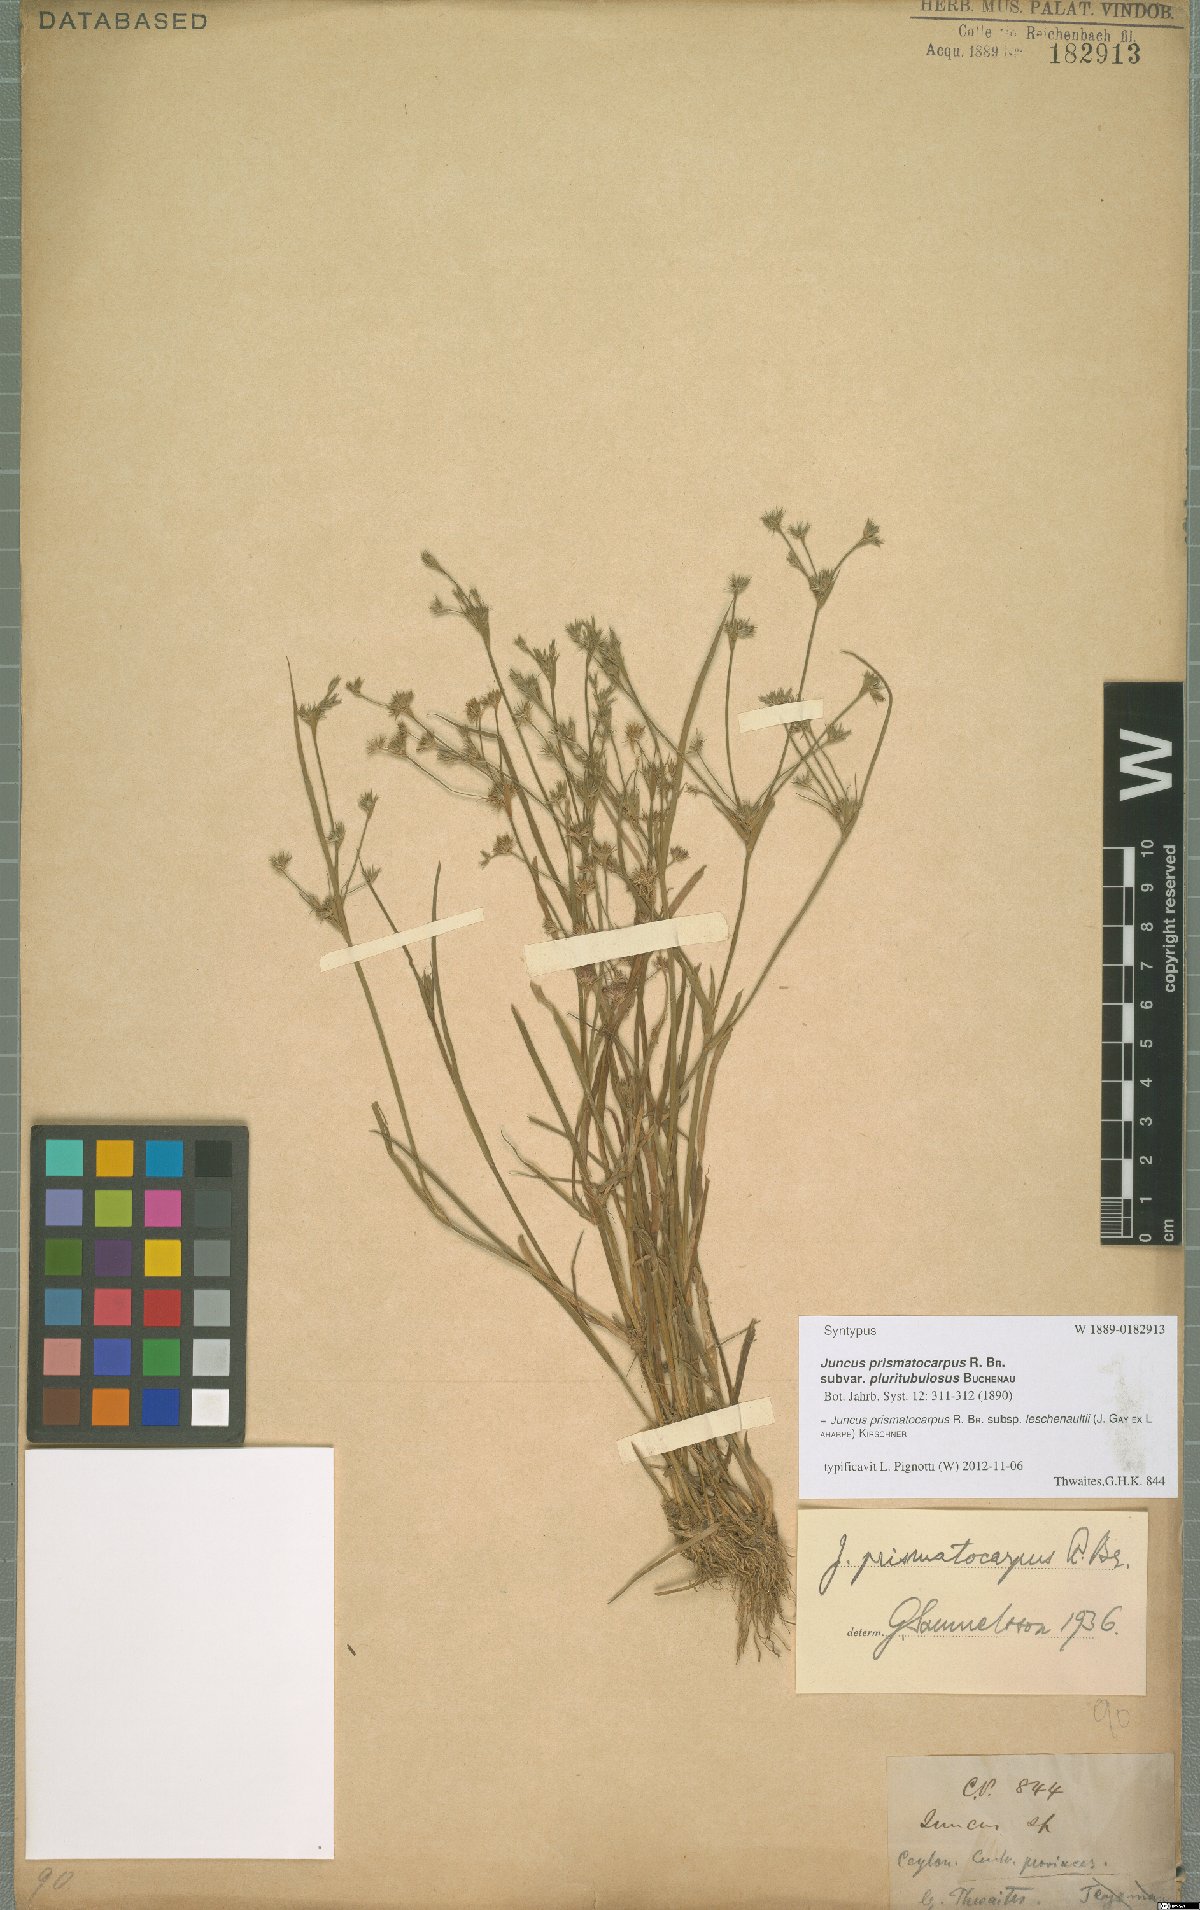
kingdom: Plantae
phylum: Tracheophyta
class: Liliopsida
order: Poales
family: Juncaceae
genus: Juncus
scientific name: Juncus prismatocarpus
